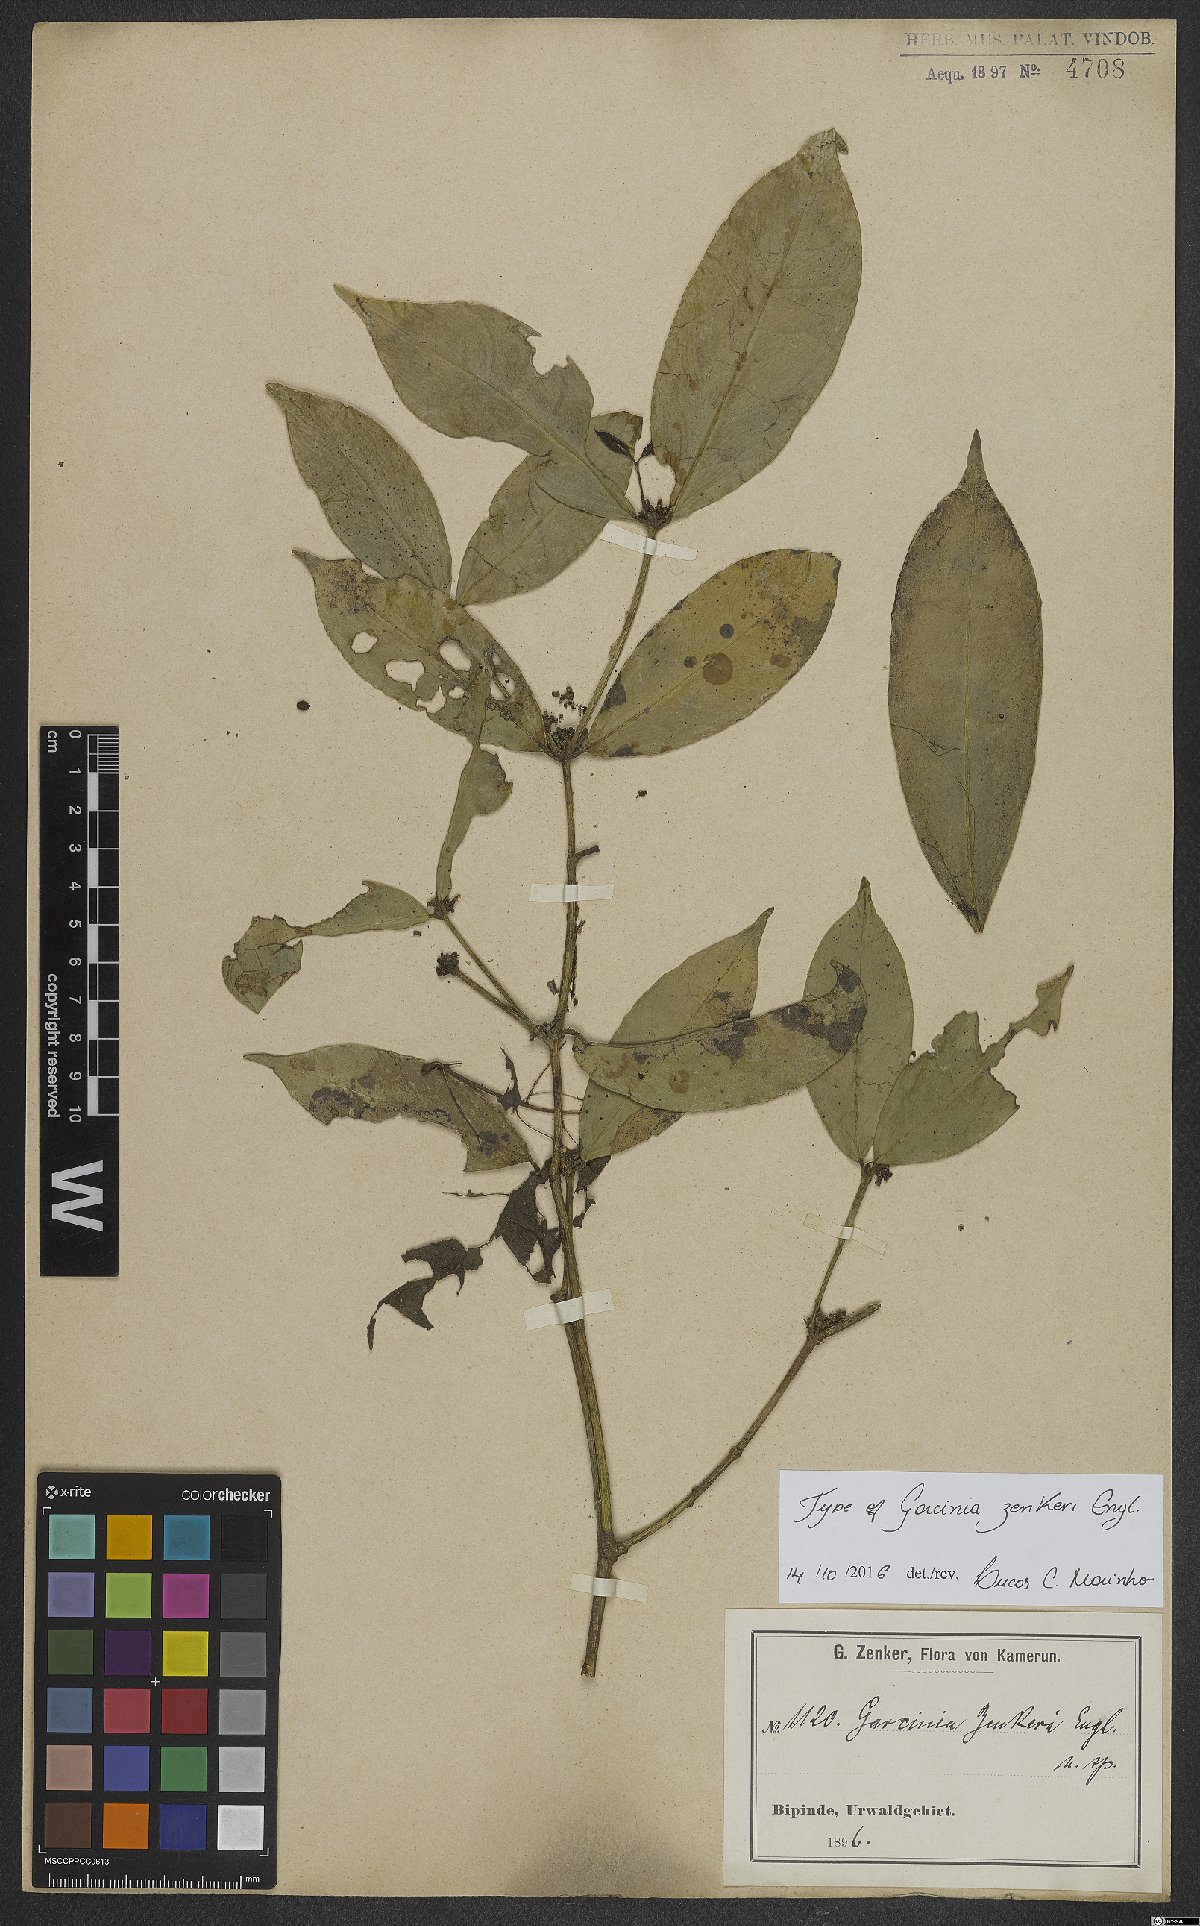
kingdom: Plantae
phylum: Tracheophyta
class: Magnoliopsida
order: Malpighiales
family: Clusiaceae
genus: Garcinia
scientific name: Garcinia densivenia
